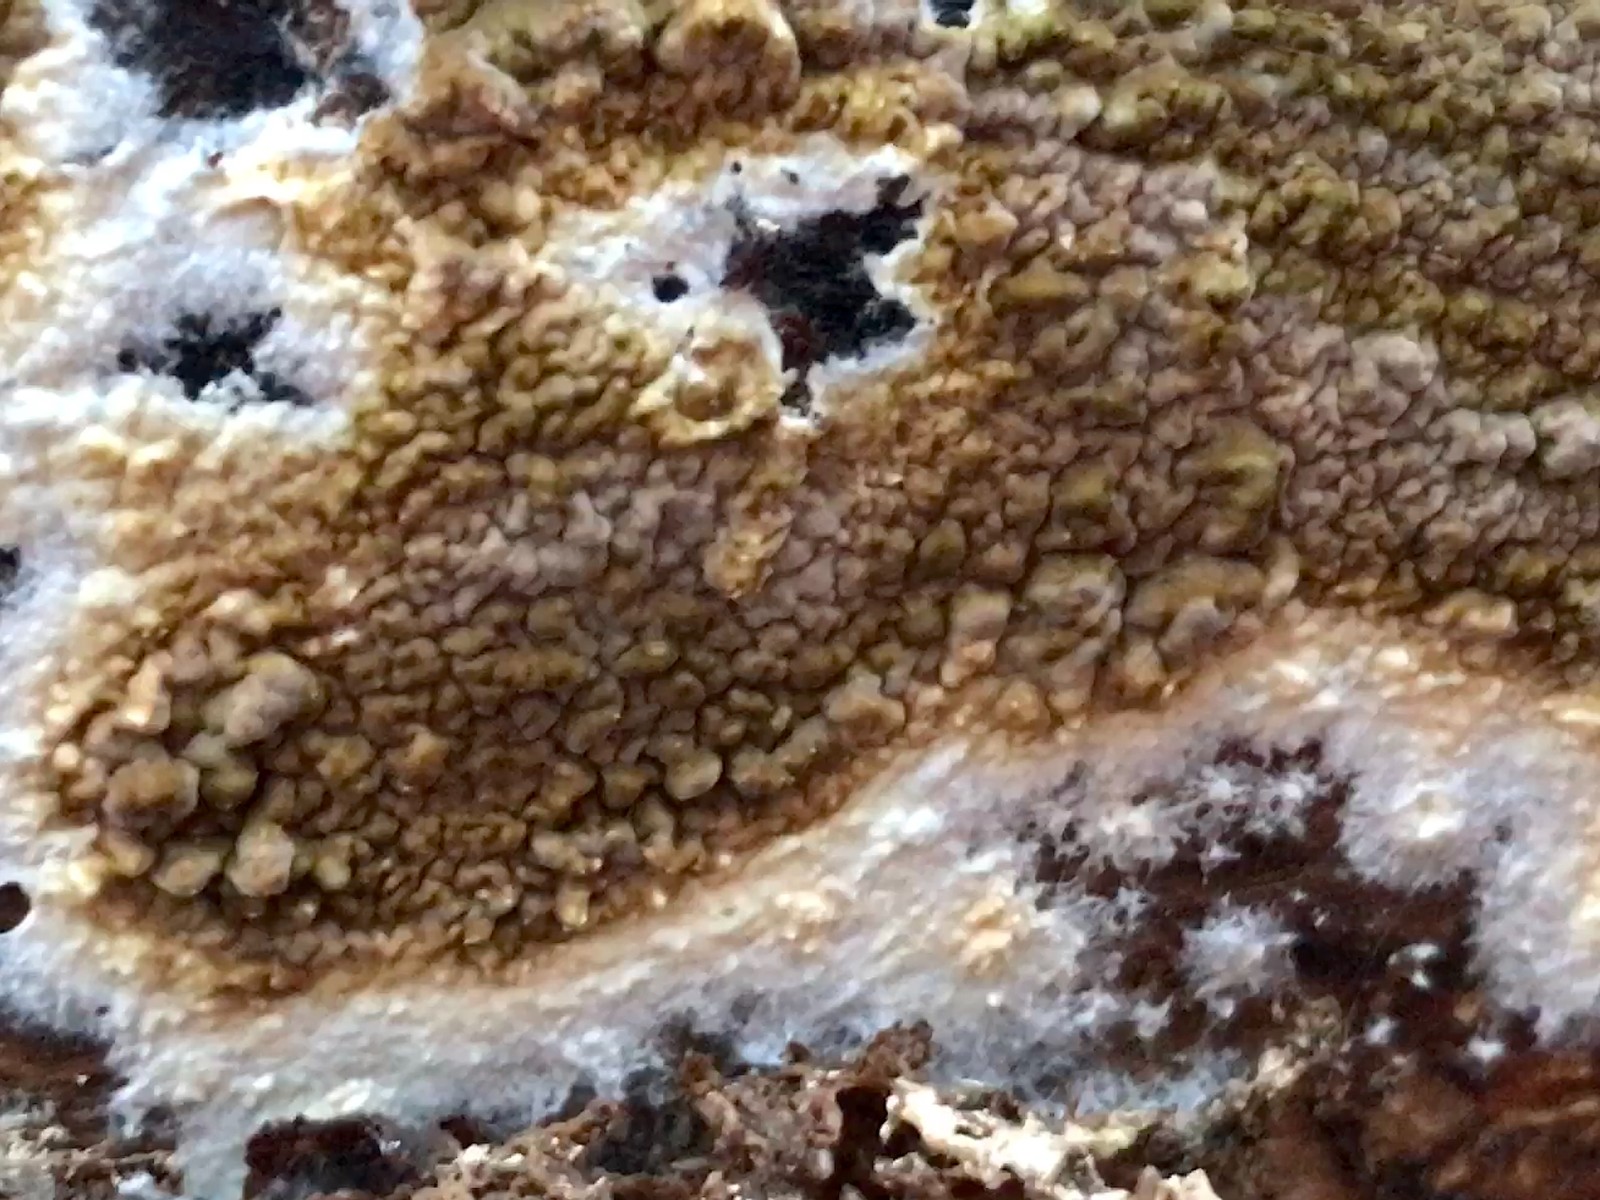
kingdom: Fungi
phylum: Basidiomycota
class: Agaricomycetes
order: Boletales
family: Coniophoraceae
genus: Coniophora
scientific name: Coniophora puteana
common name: gul tømmersvamp
